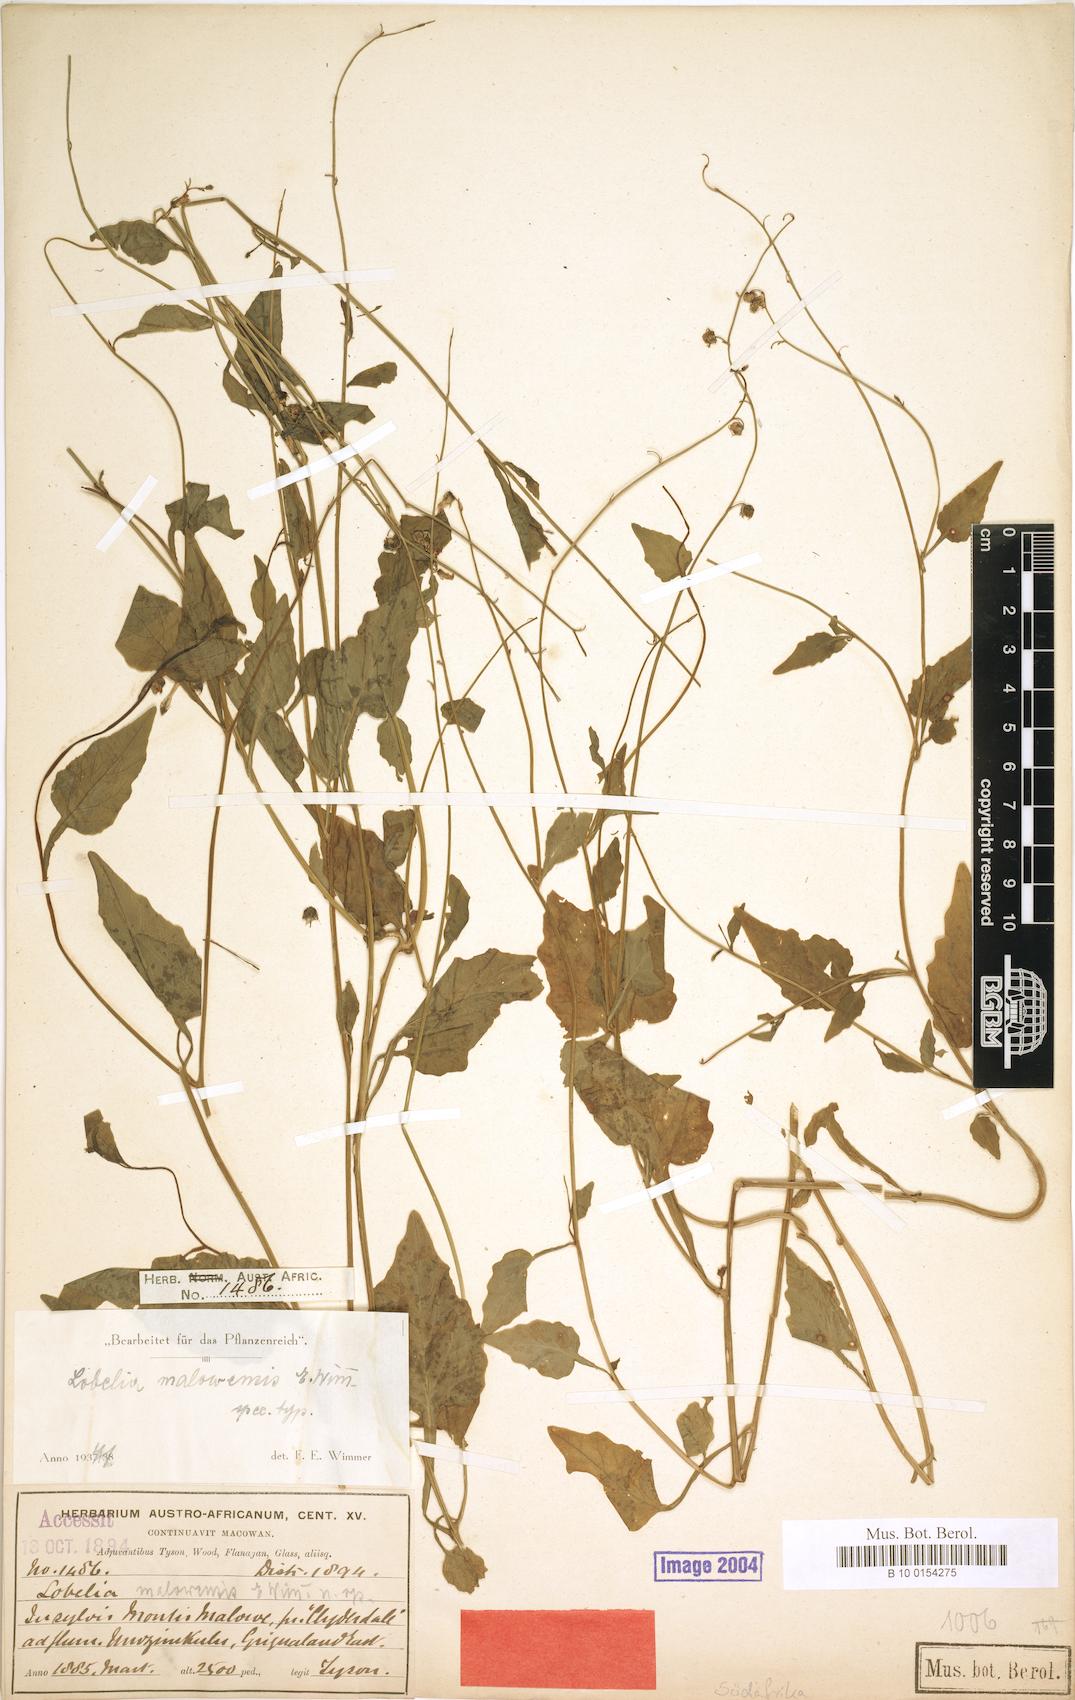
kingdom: Plantae
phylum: Tracheophyta
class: Magnoliopsida
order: Asterales
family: Campanulaceae
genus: Lobelia
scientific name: Lobelia malowensis
